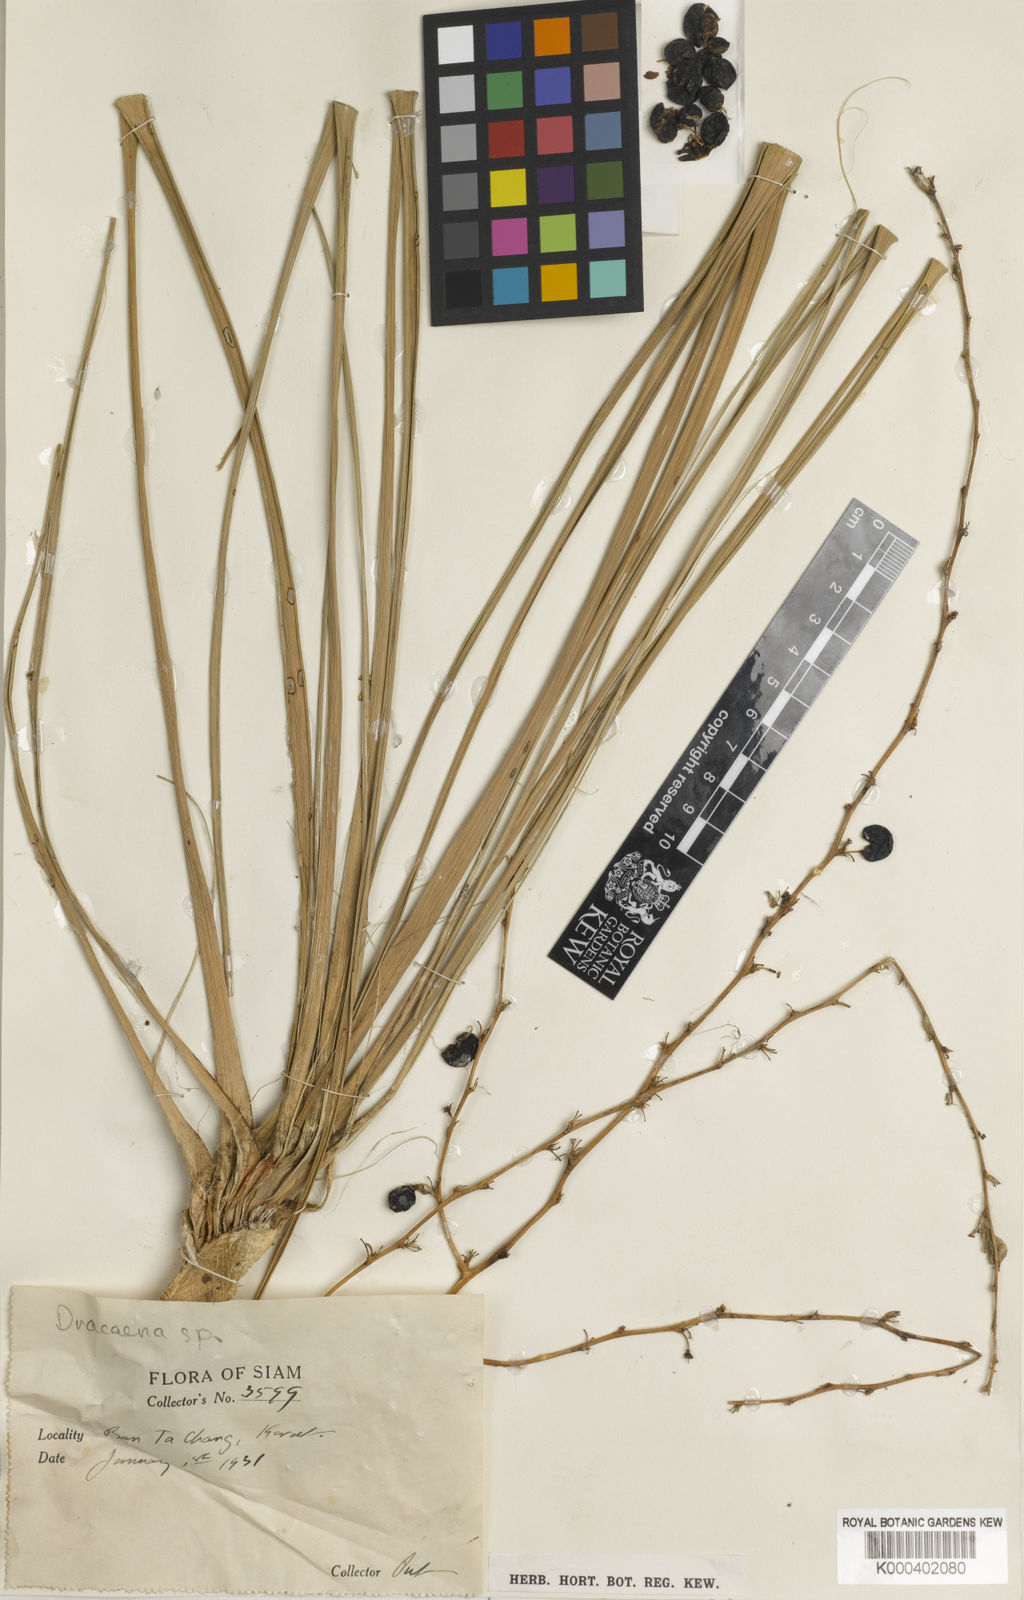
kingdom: Plantae
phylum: Tracheophyta
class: Liliopsida
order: Asparagales
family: Asparagaceae
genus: Dracaena
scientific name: Dracaena
